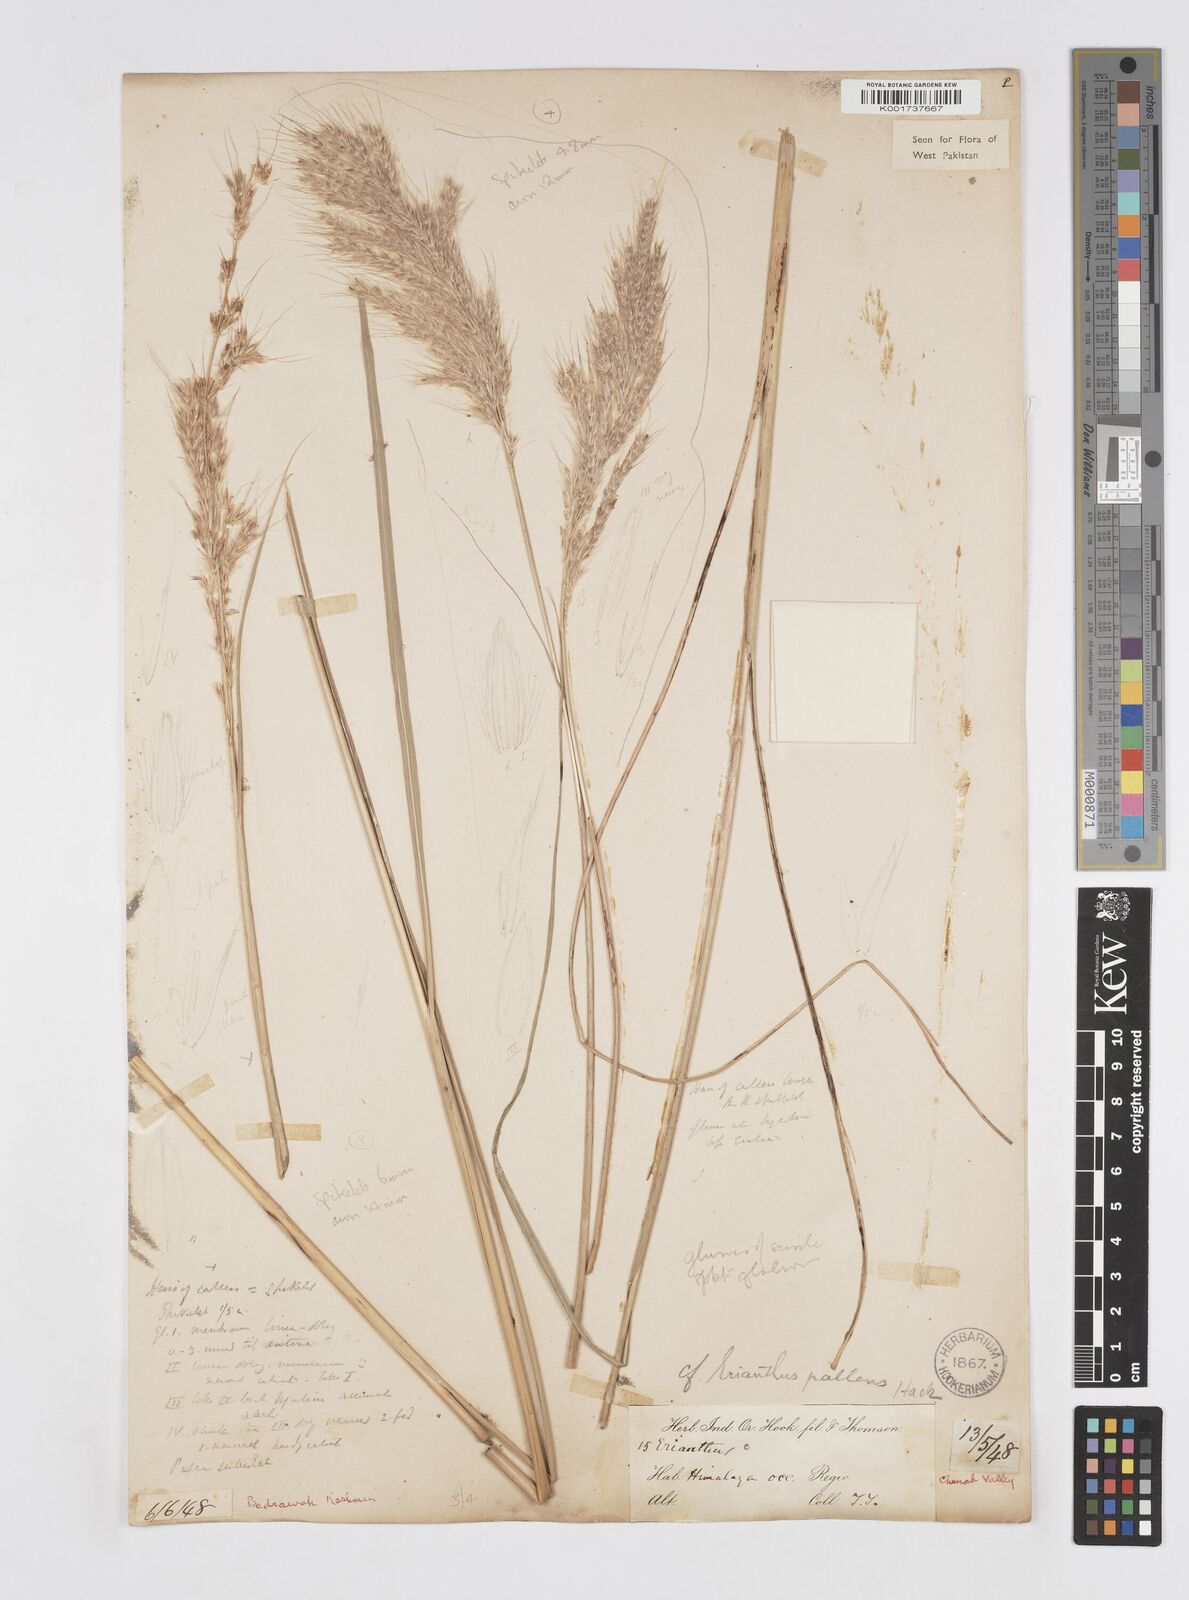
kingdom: Plantae
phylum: Tracheophyta
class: Liliopsida
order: Poales
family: Poaceae
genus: Saccharum
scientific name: Saccharum filifolium
